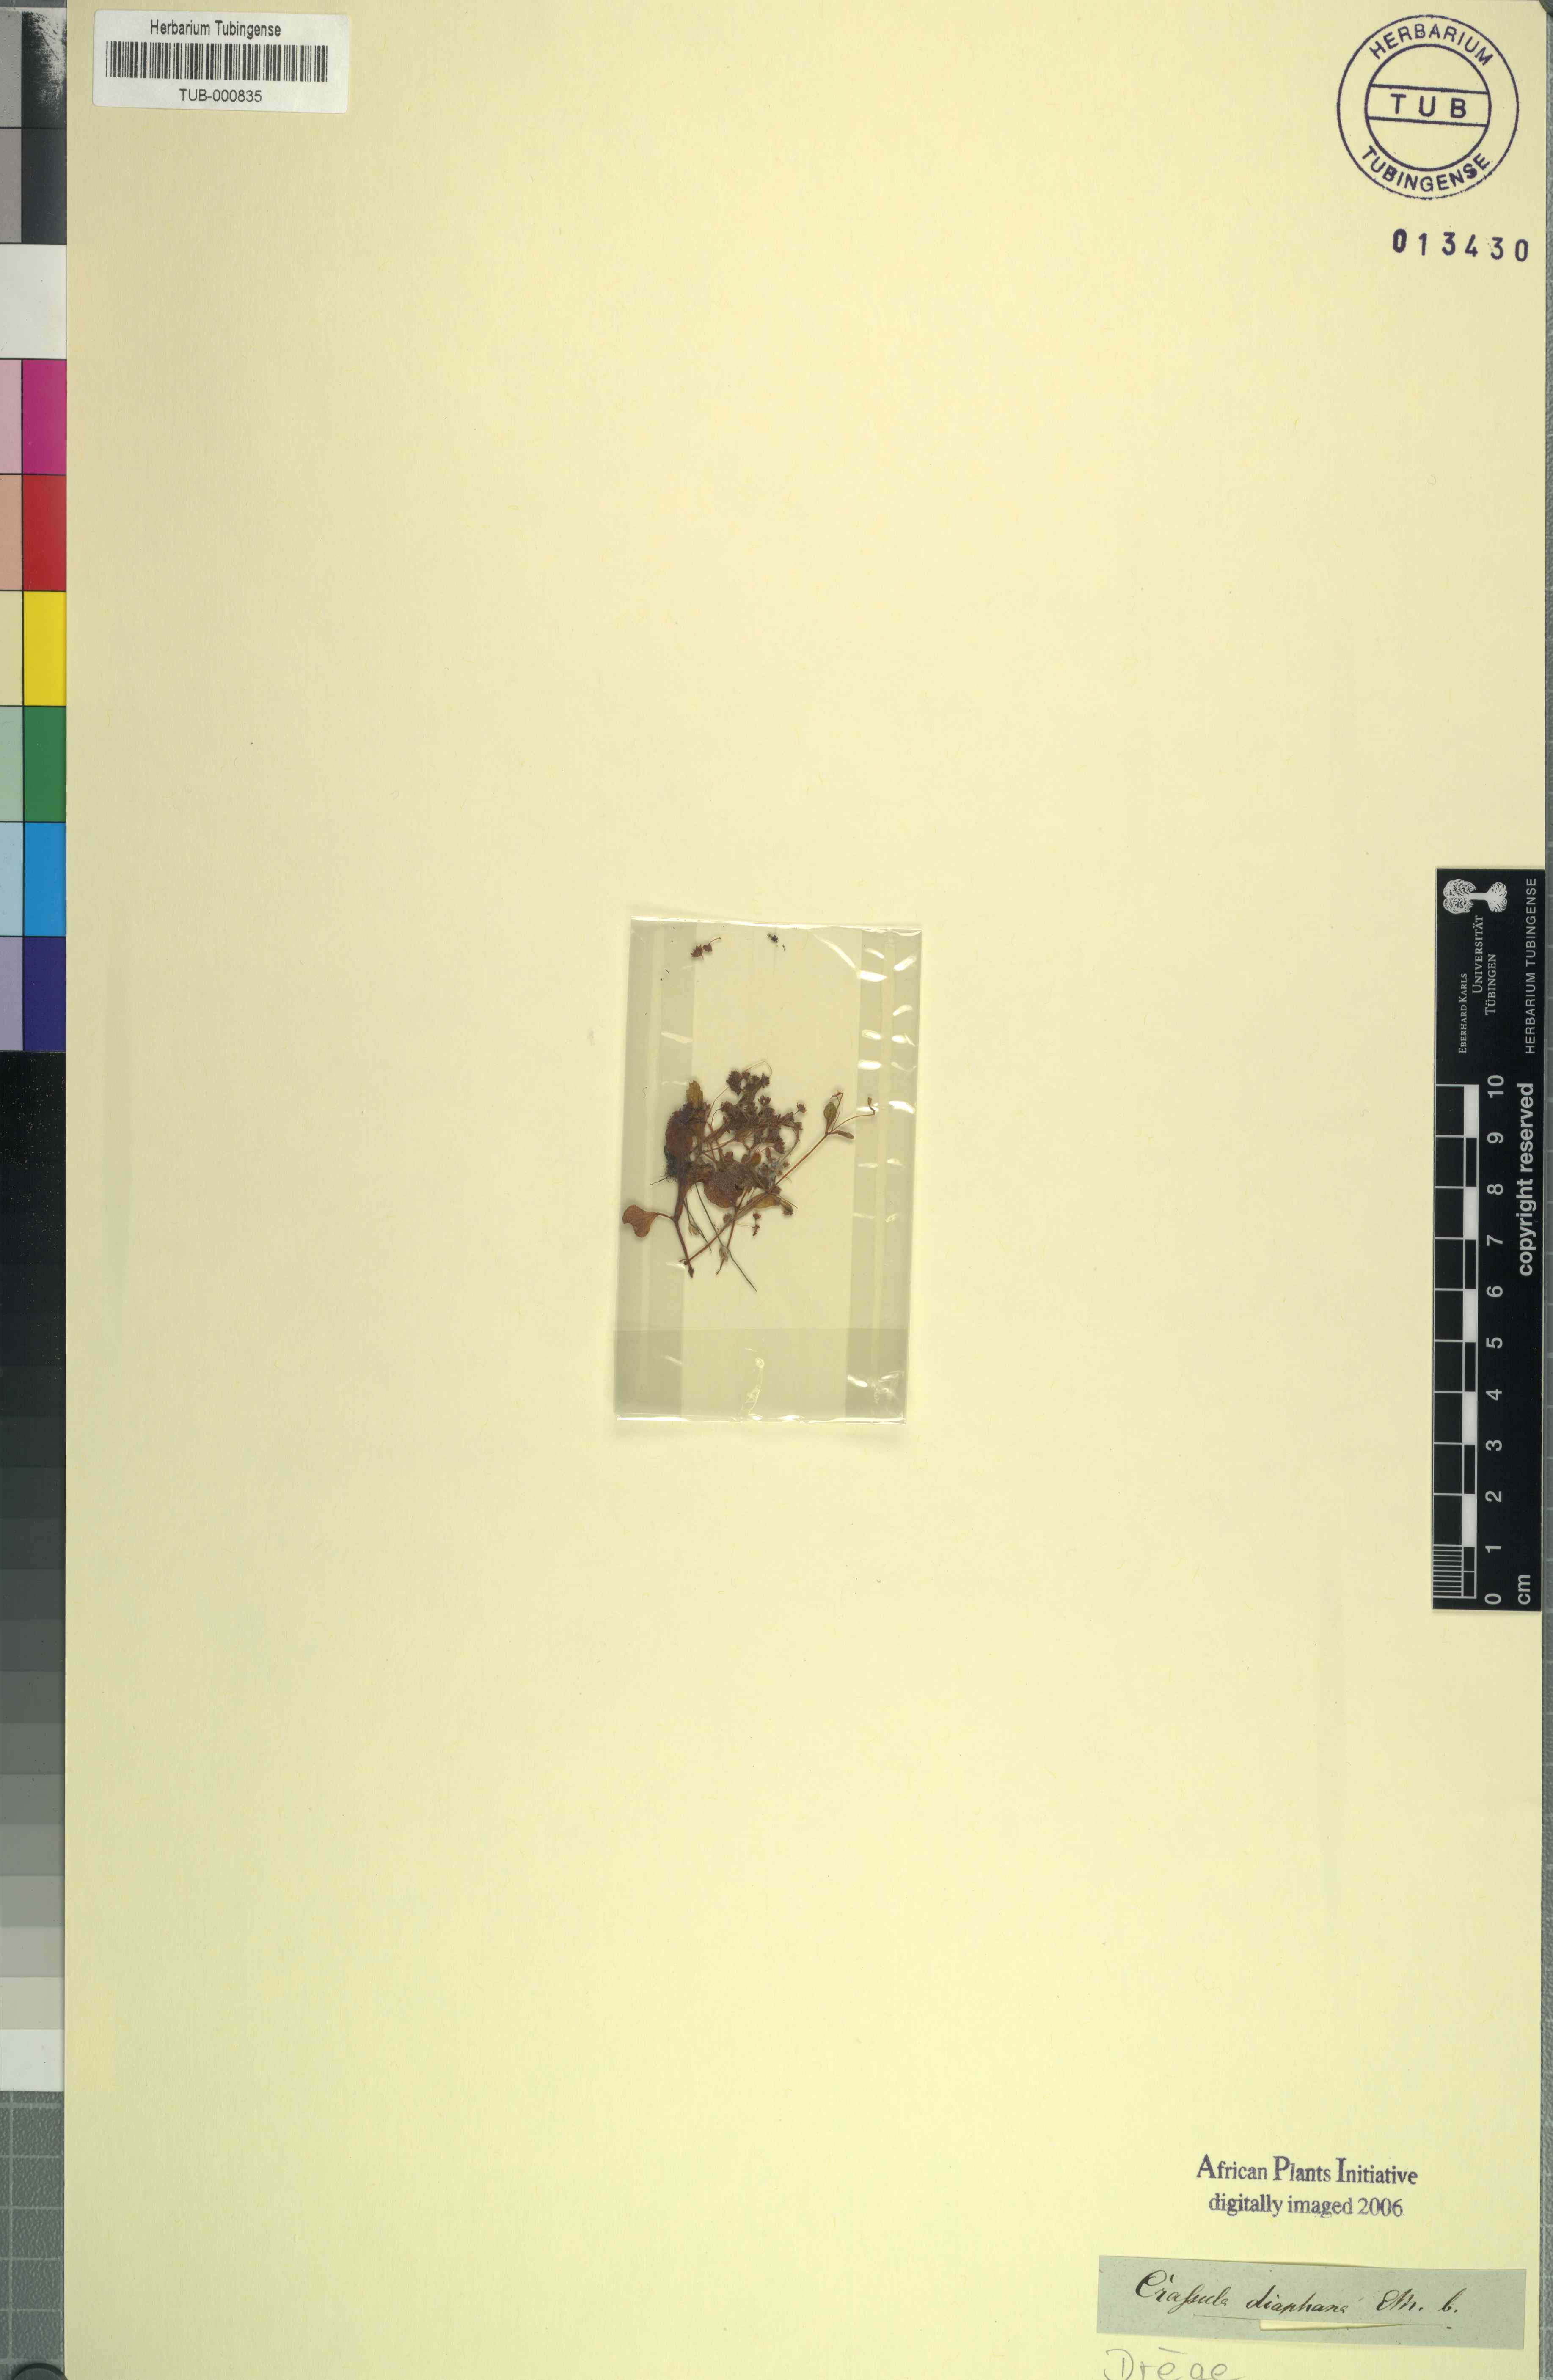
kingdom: Plantae
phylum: Tracheophyta
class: Magnoliopsida
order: Saxifragales
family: Crassulaceae
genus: Crassula
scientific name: Crassula strigosa
